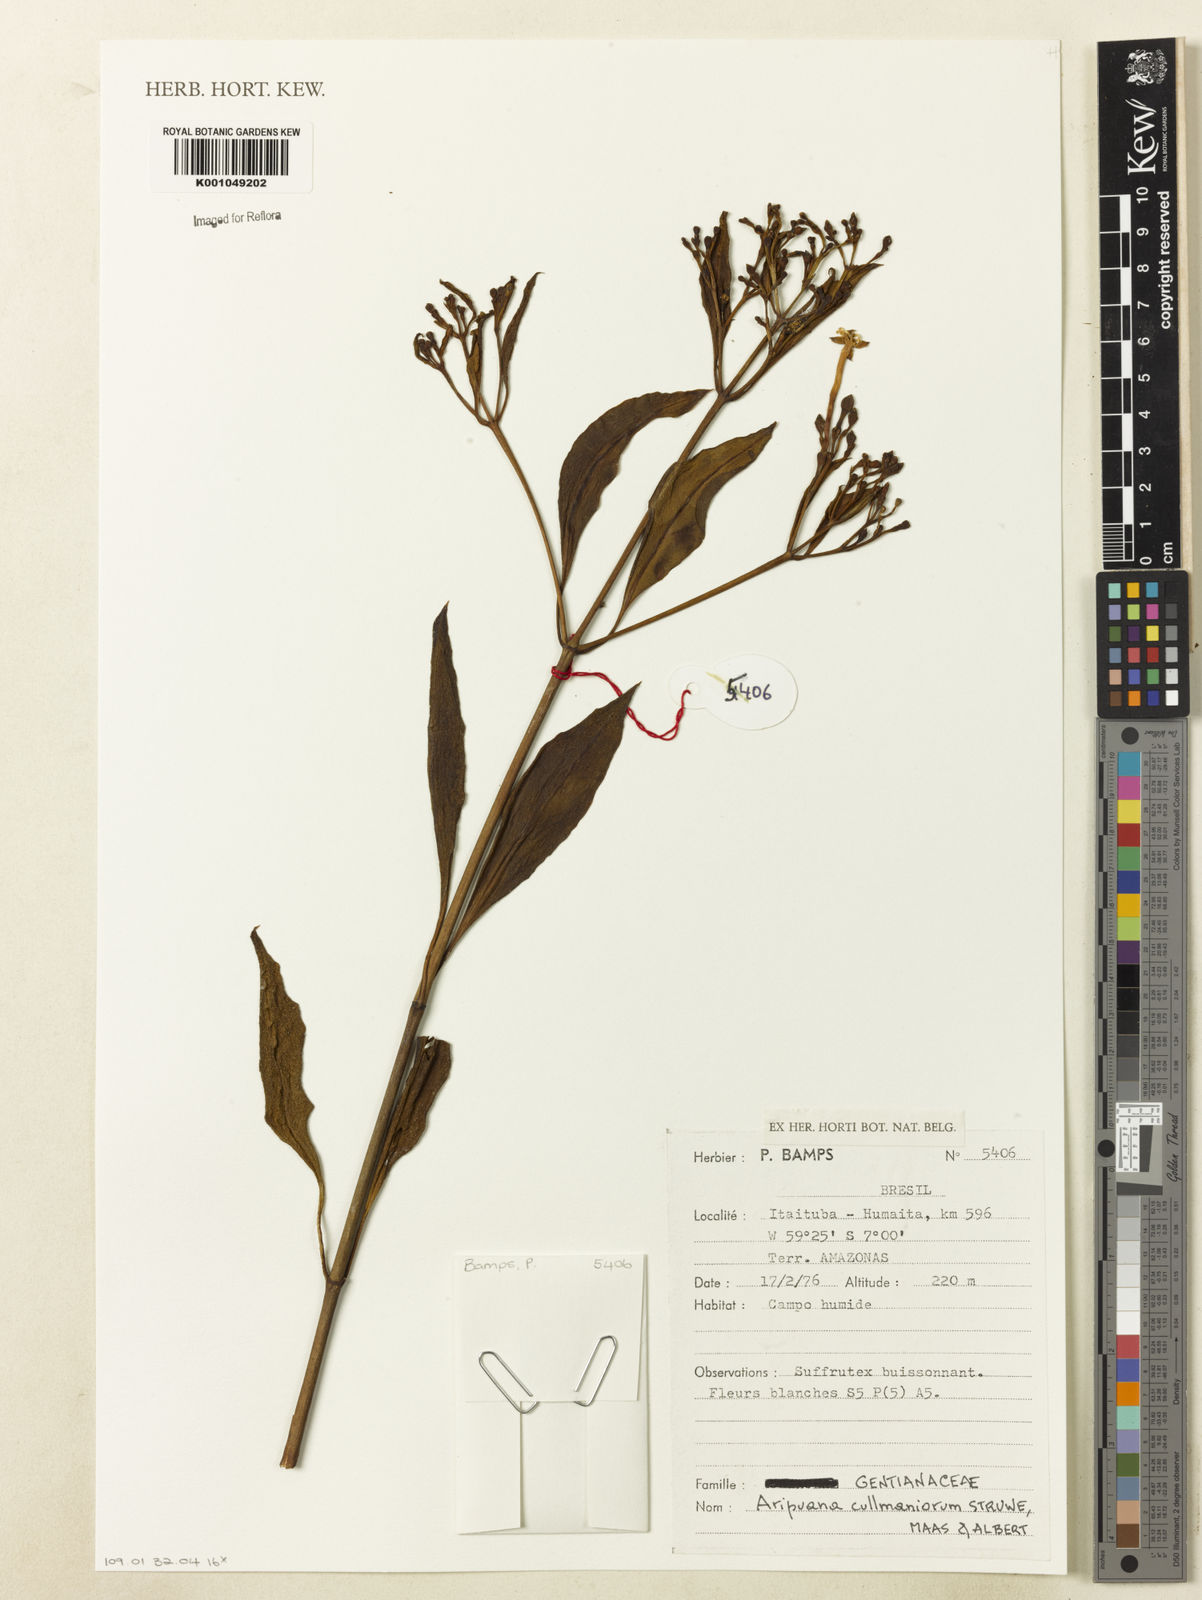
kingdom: Plantae
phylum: Tracheophyta
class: Magnoliopsida
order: Gentianales
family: Gentianaceae
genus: Aripuana
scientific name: Aripuana cullmaniorum
